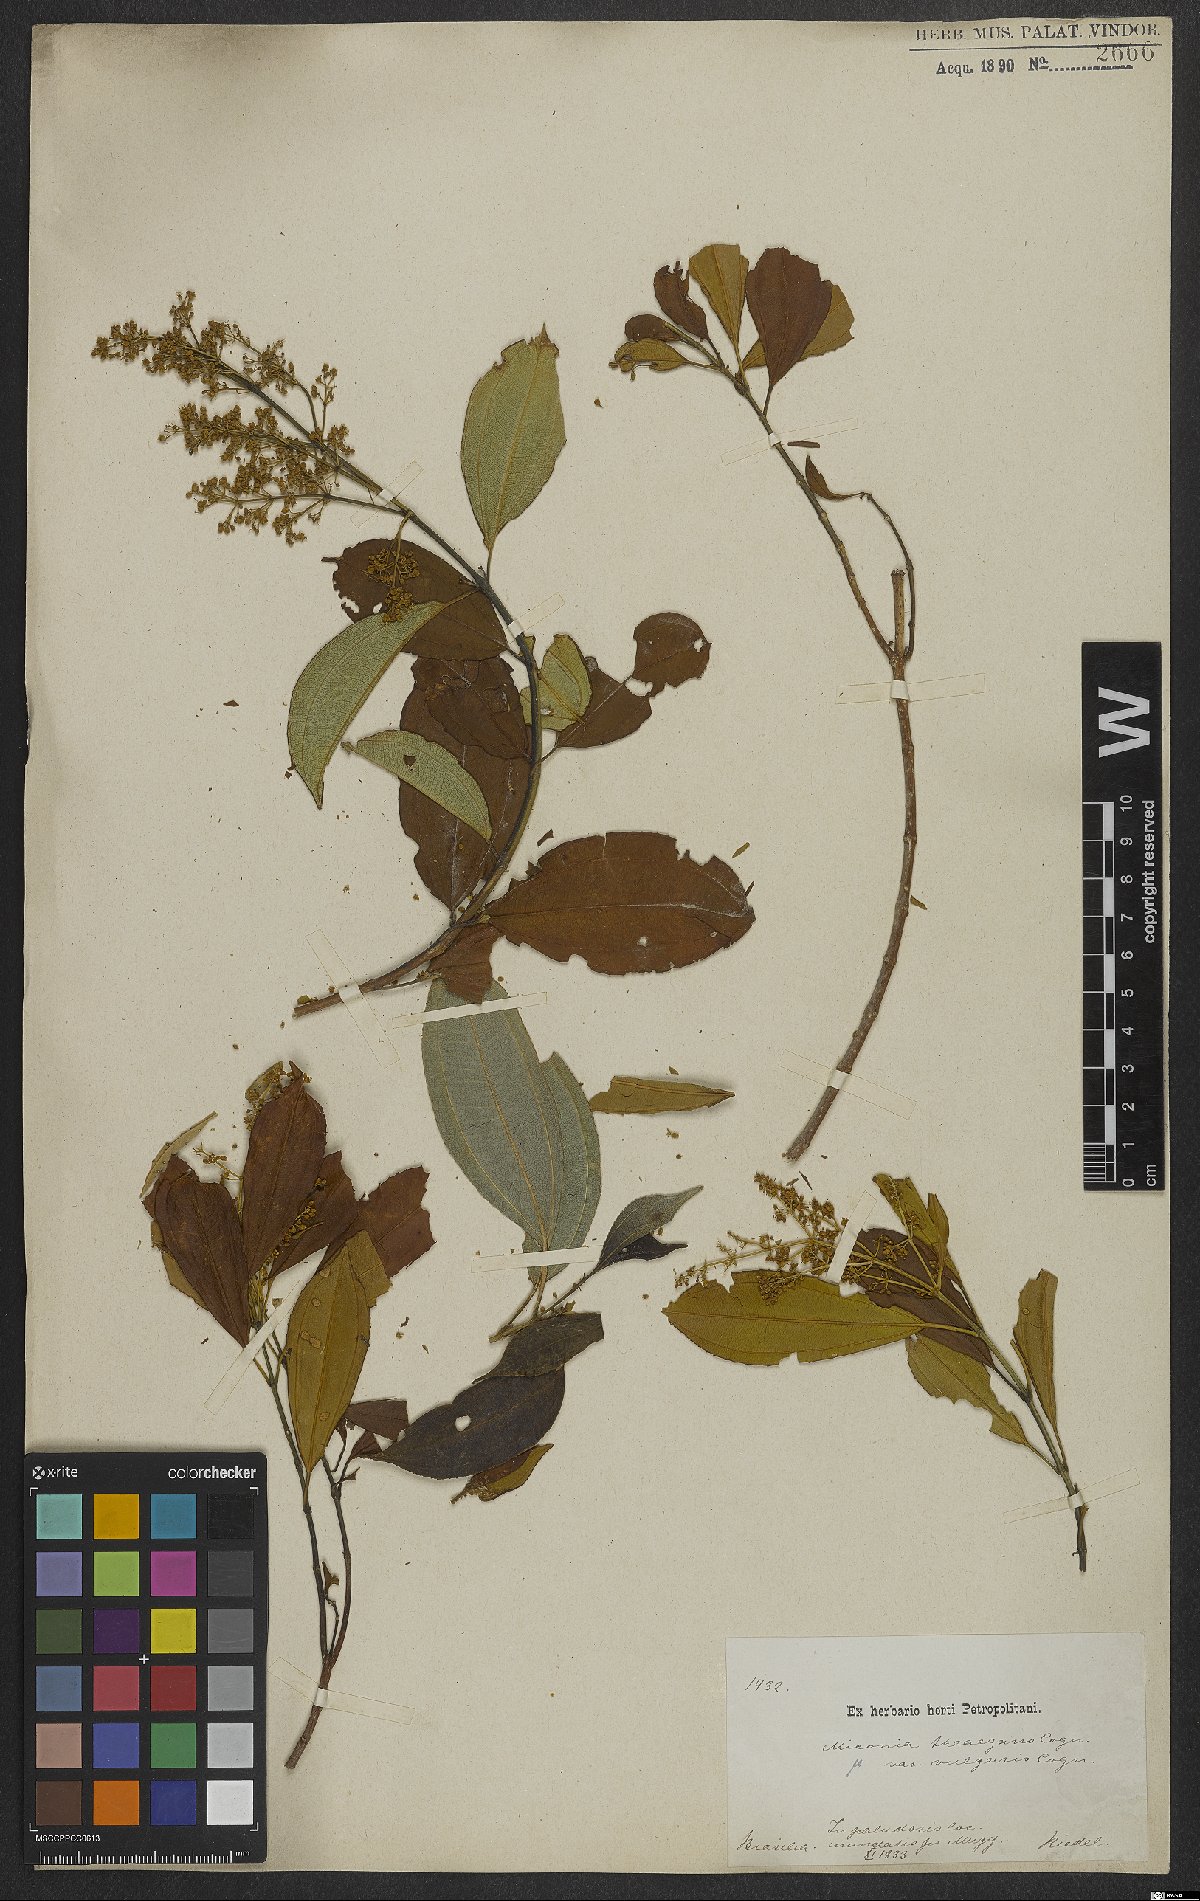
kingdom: Plantae
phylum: Tracheophyta
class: Magnoliopsida
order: Myrtales
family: Melastomataceae
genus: Miconia
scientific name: Miconia theizans
